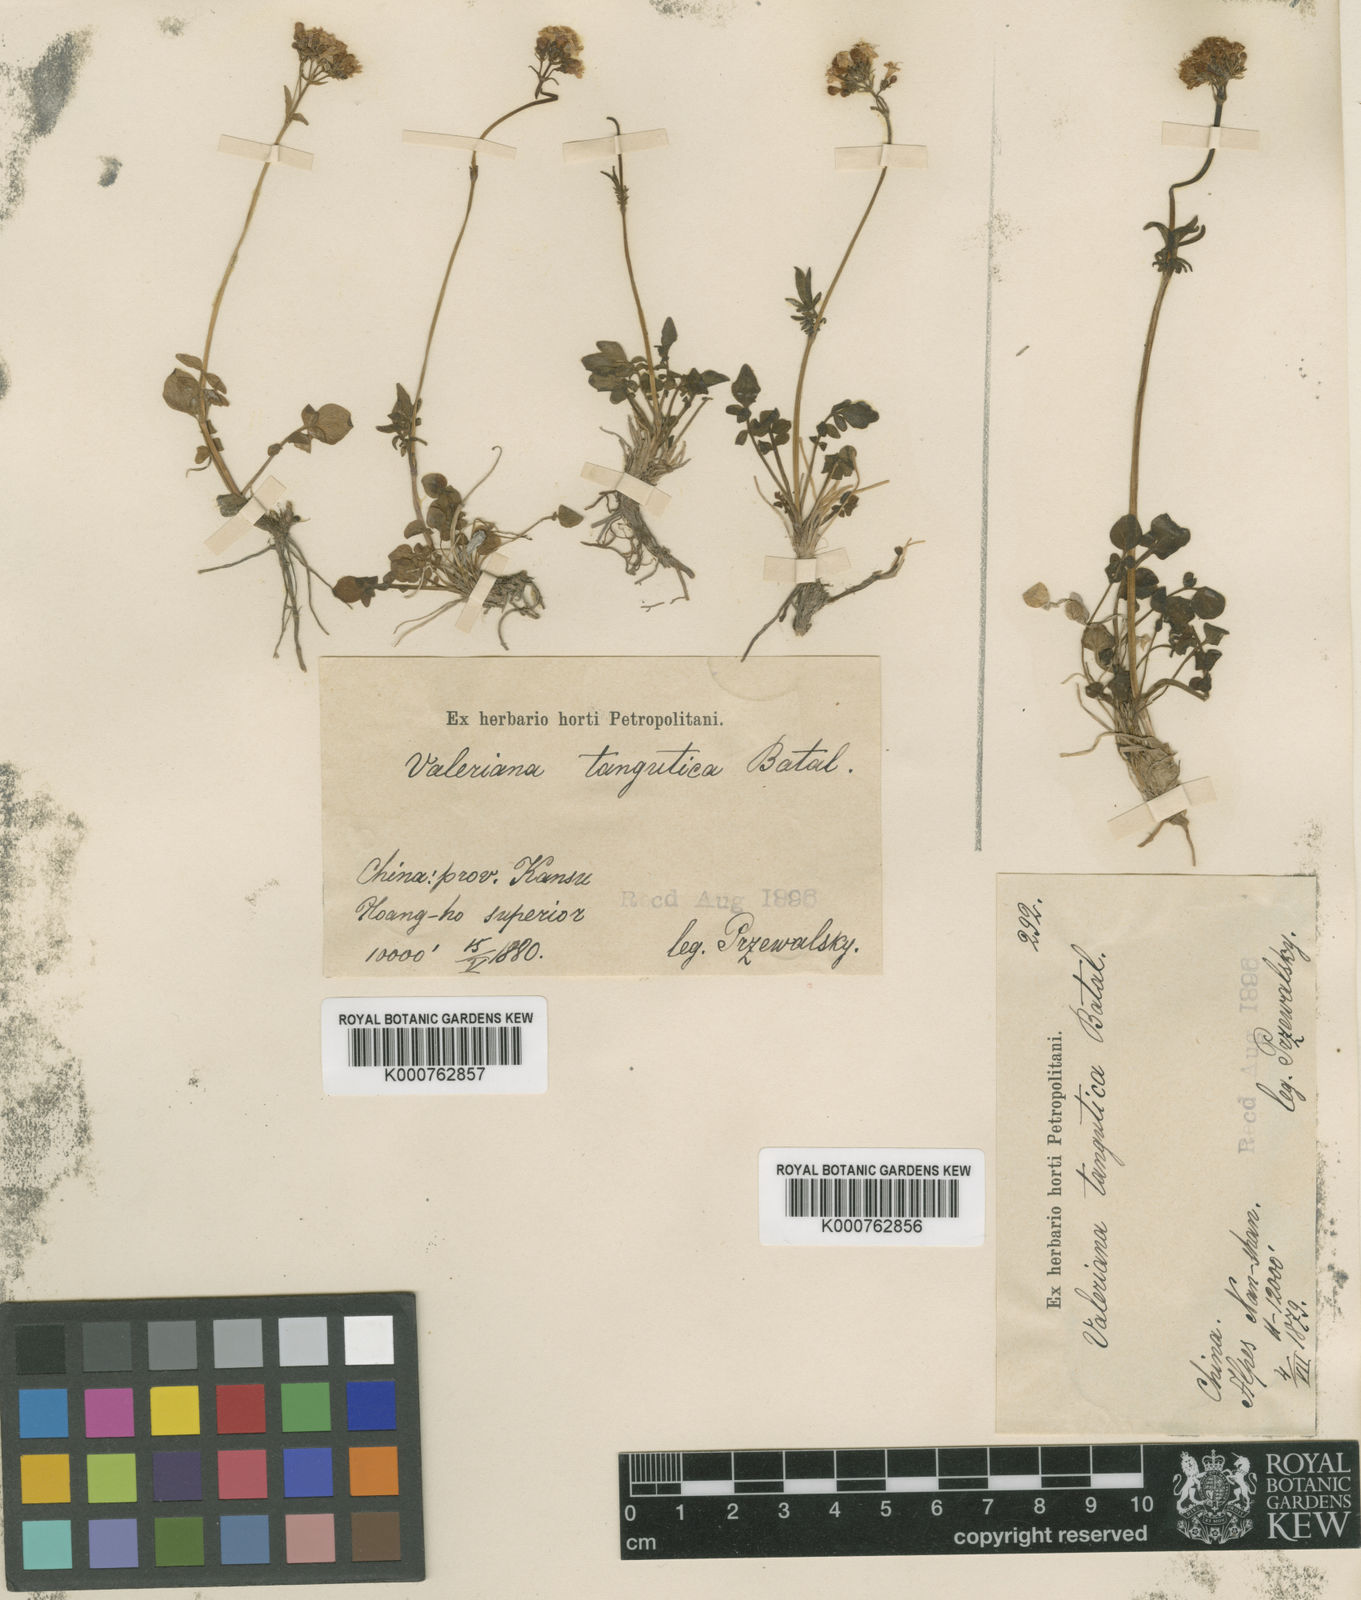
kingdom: Plantae
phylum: Tracheophyta
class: Magnoliopsida
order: Dipsacales
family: Caprifoliaceae
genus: Valeriana
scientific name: Valeriana tangutica
